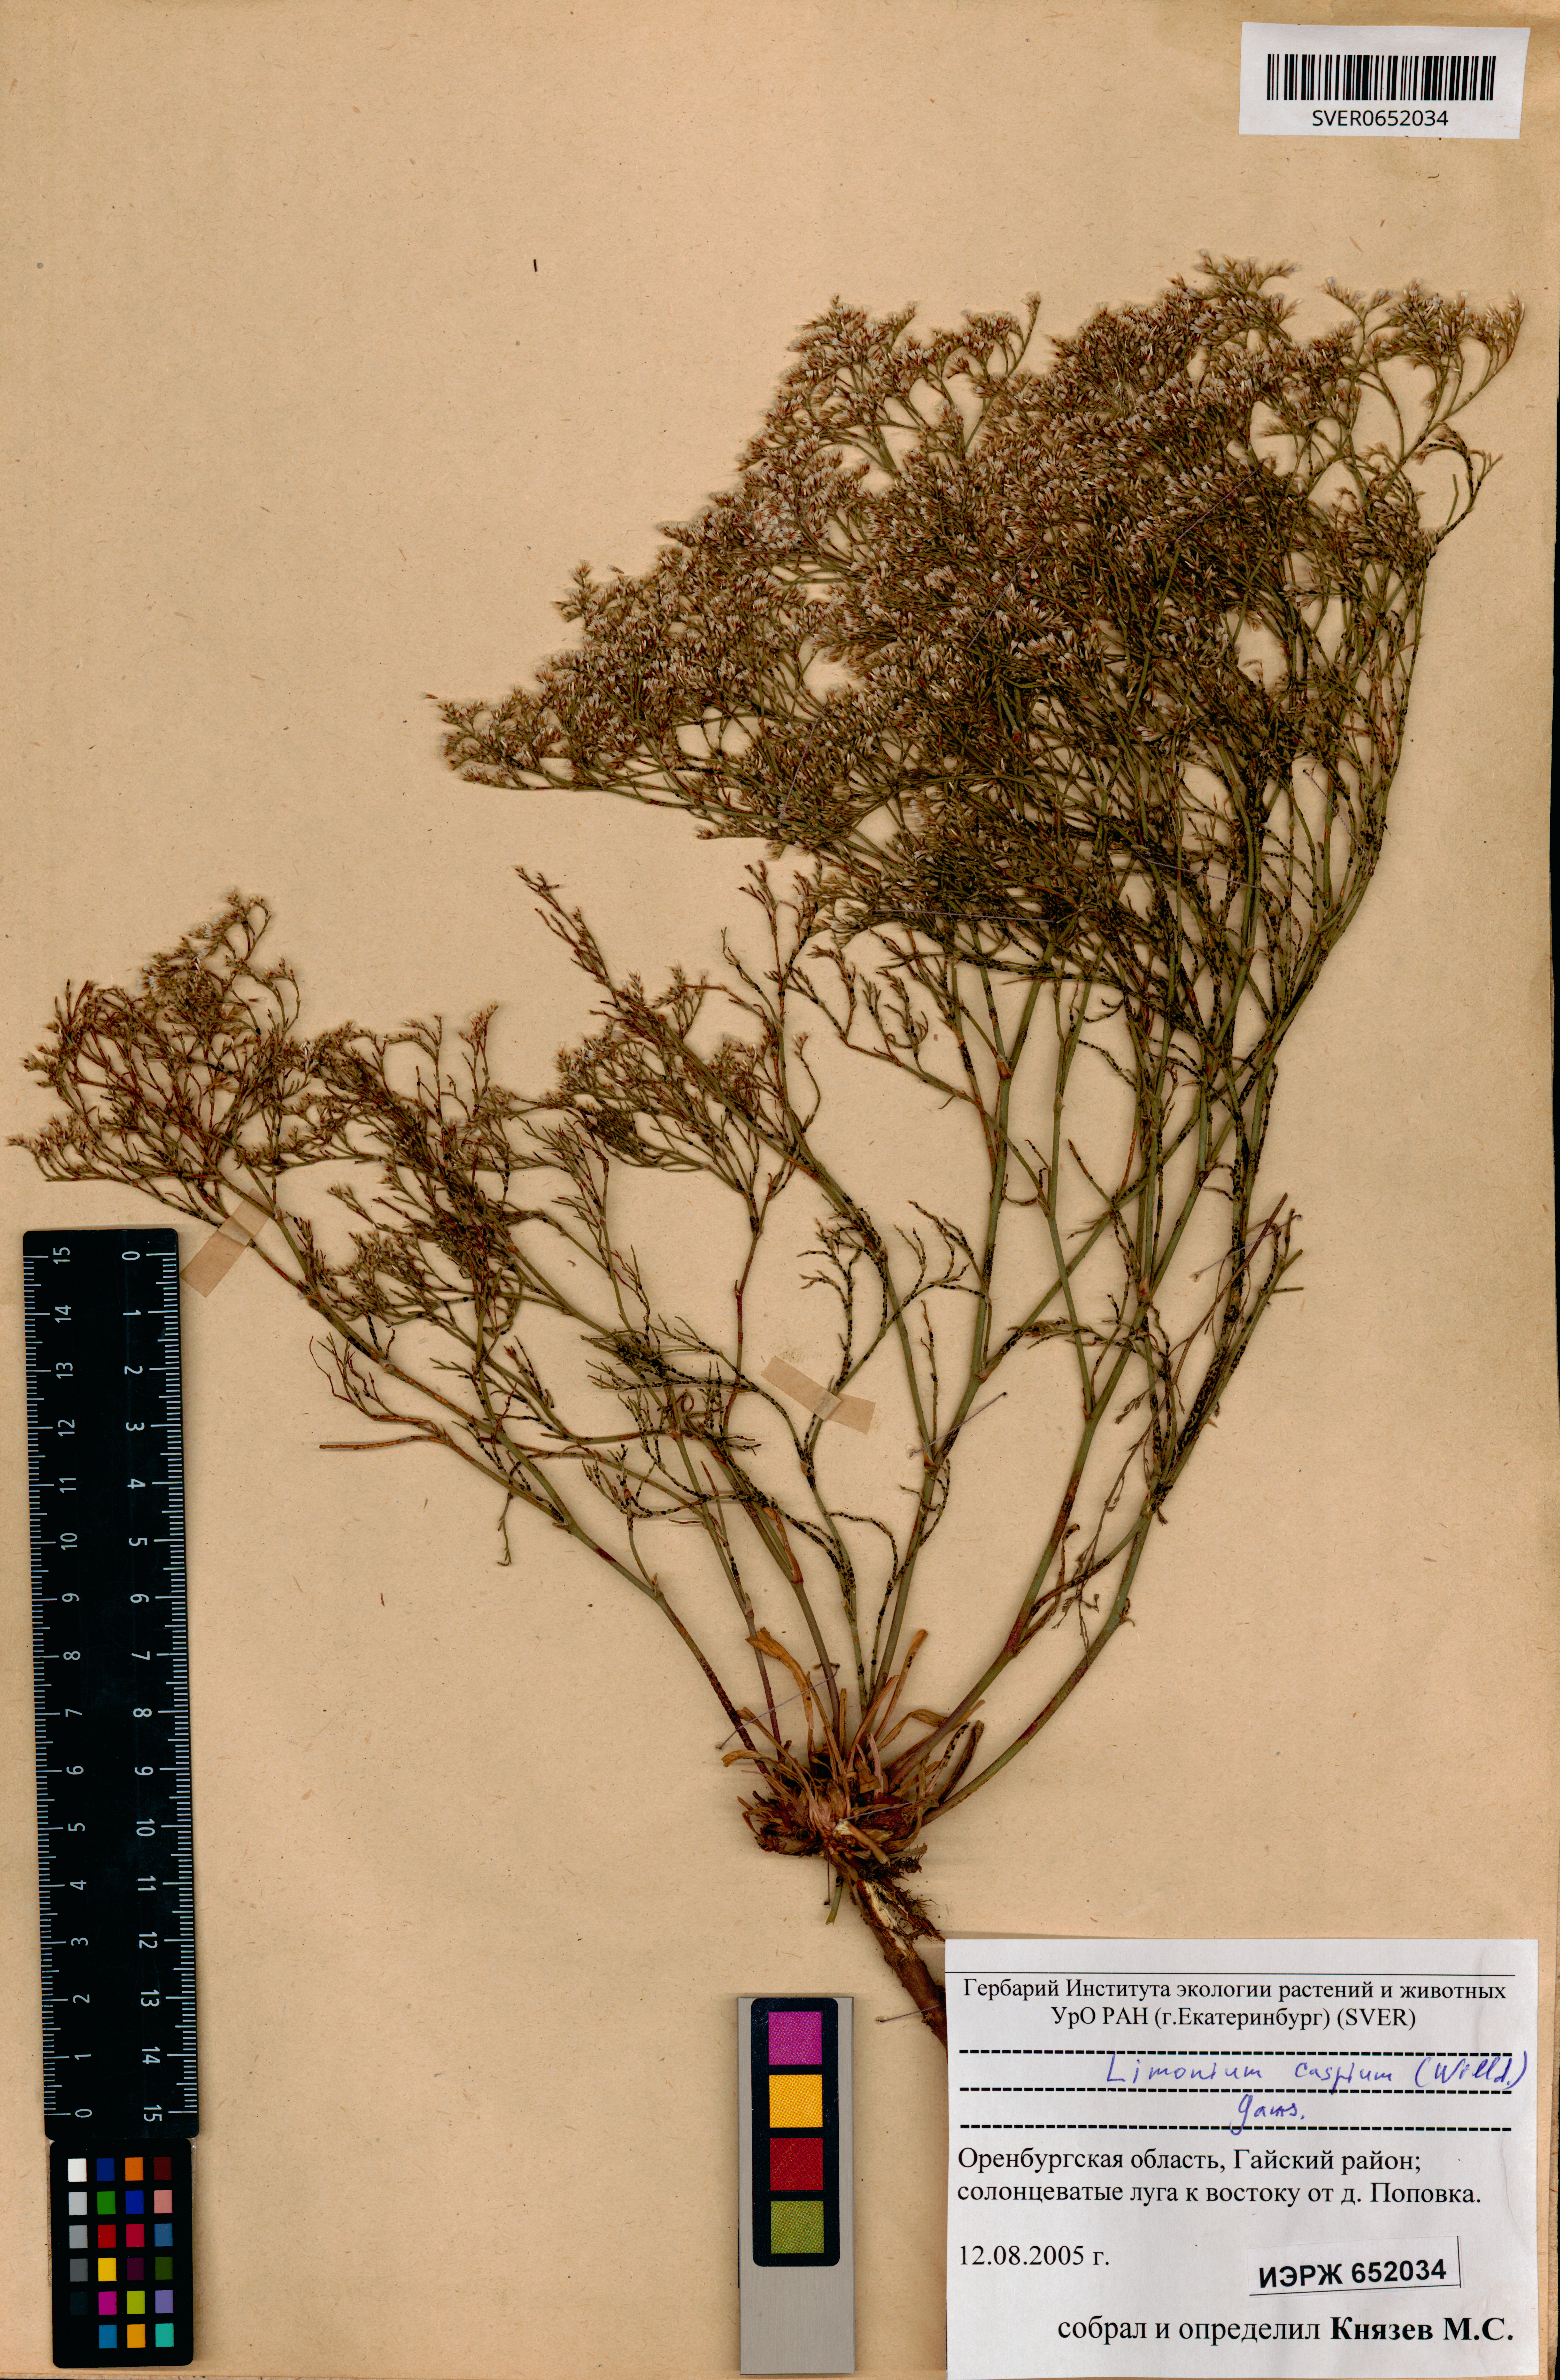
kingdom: Plantae
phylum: Tracheophyta
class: Magnoliopsida
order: Caryophyllales
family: Plumbaginaceae
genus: Limonium
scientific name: Limonium bellidifolium
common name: Matted sea-lavender
